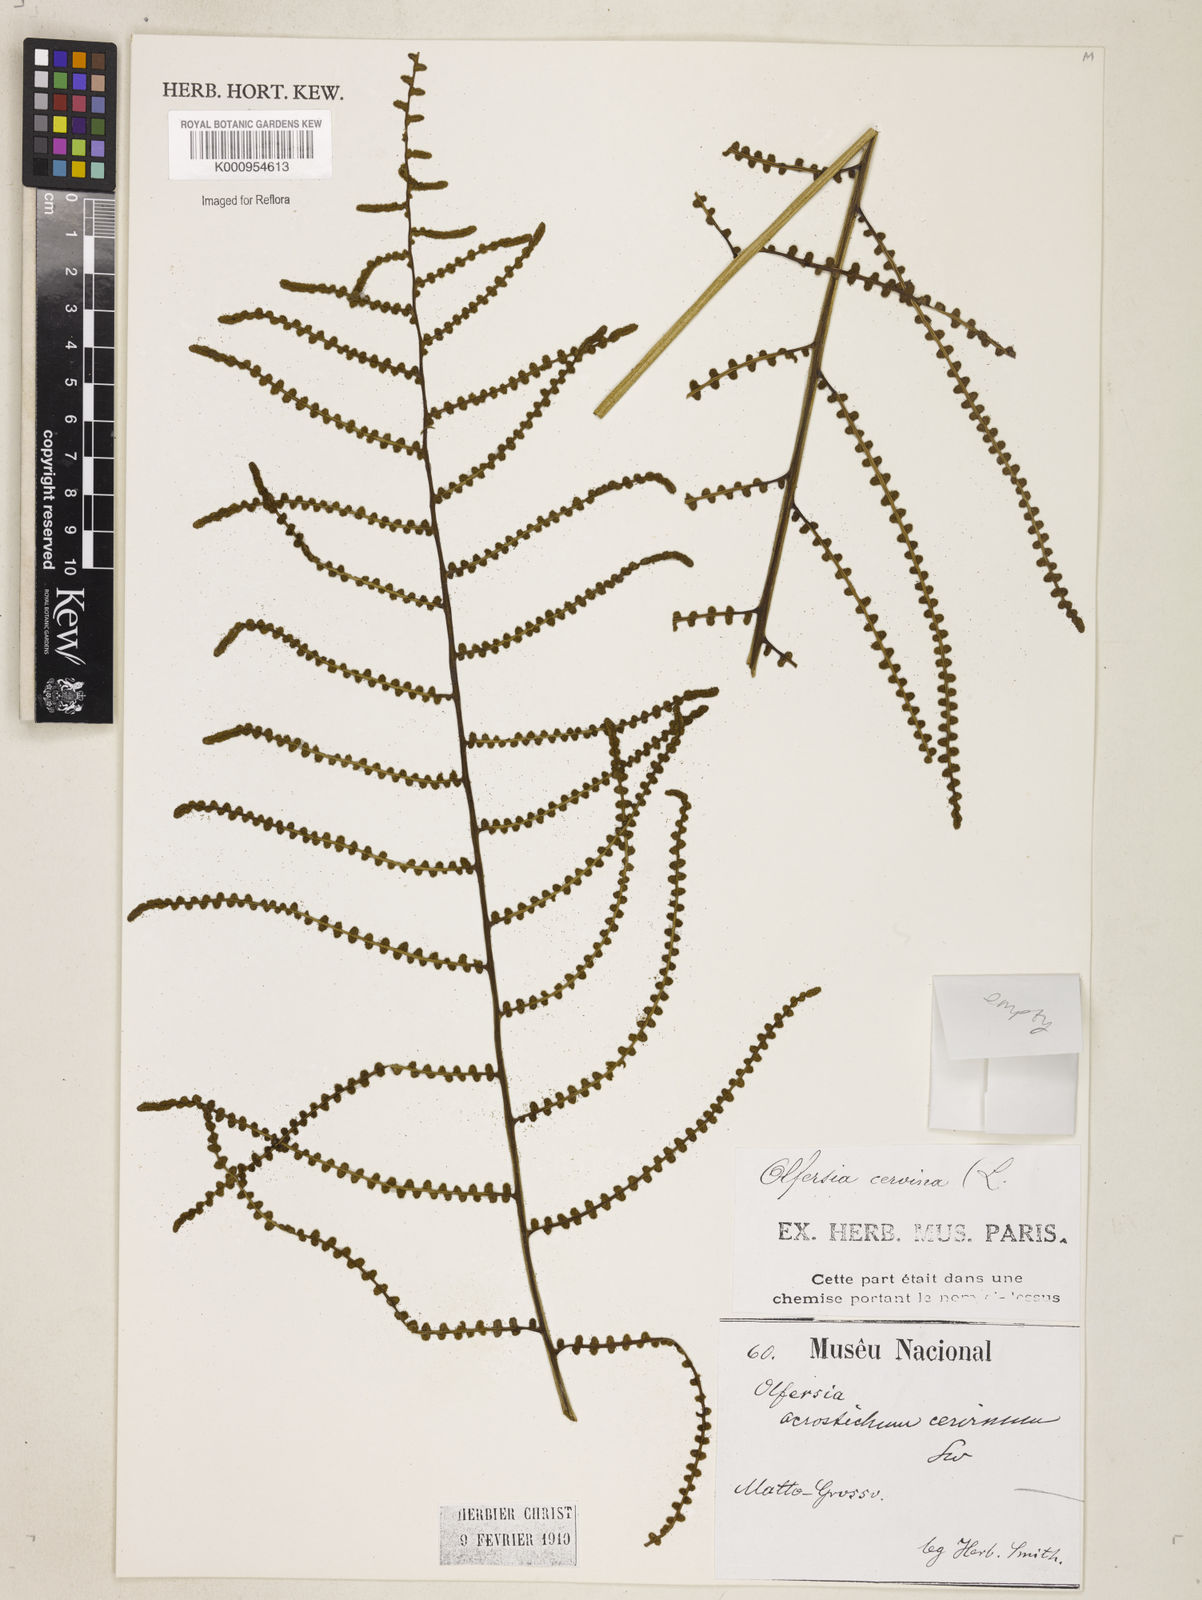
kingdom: Plantae
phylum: Tracheophyta
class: Polypodiopsida
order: Polypodiales
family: Dryopteridaceae
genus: Polystichum
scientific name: Polystichum
